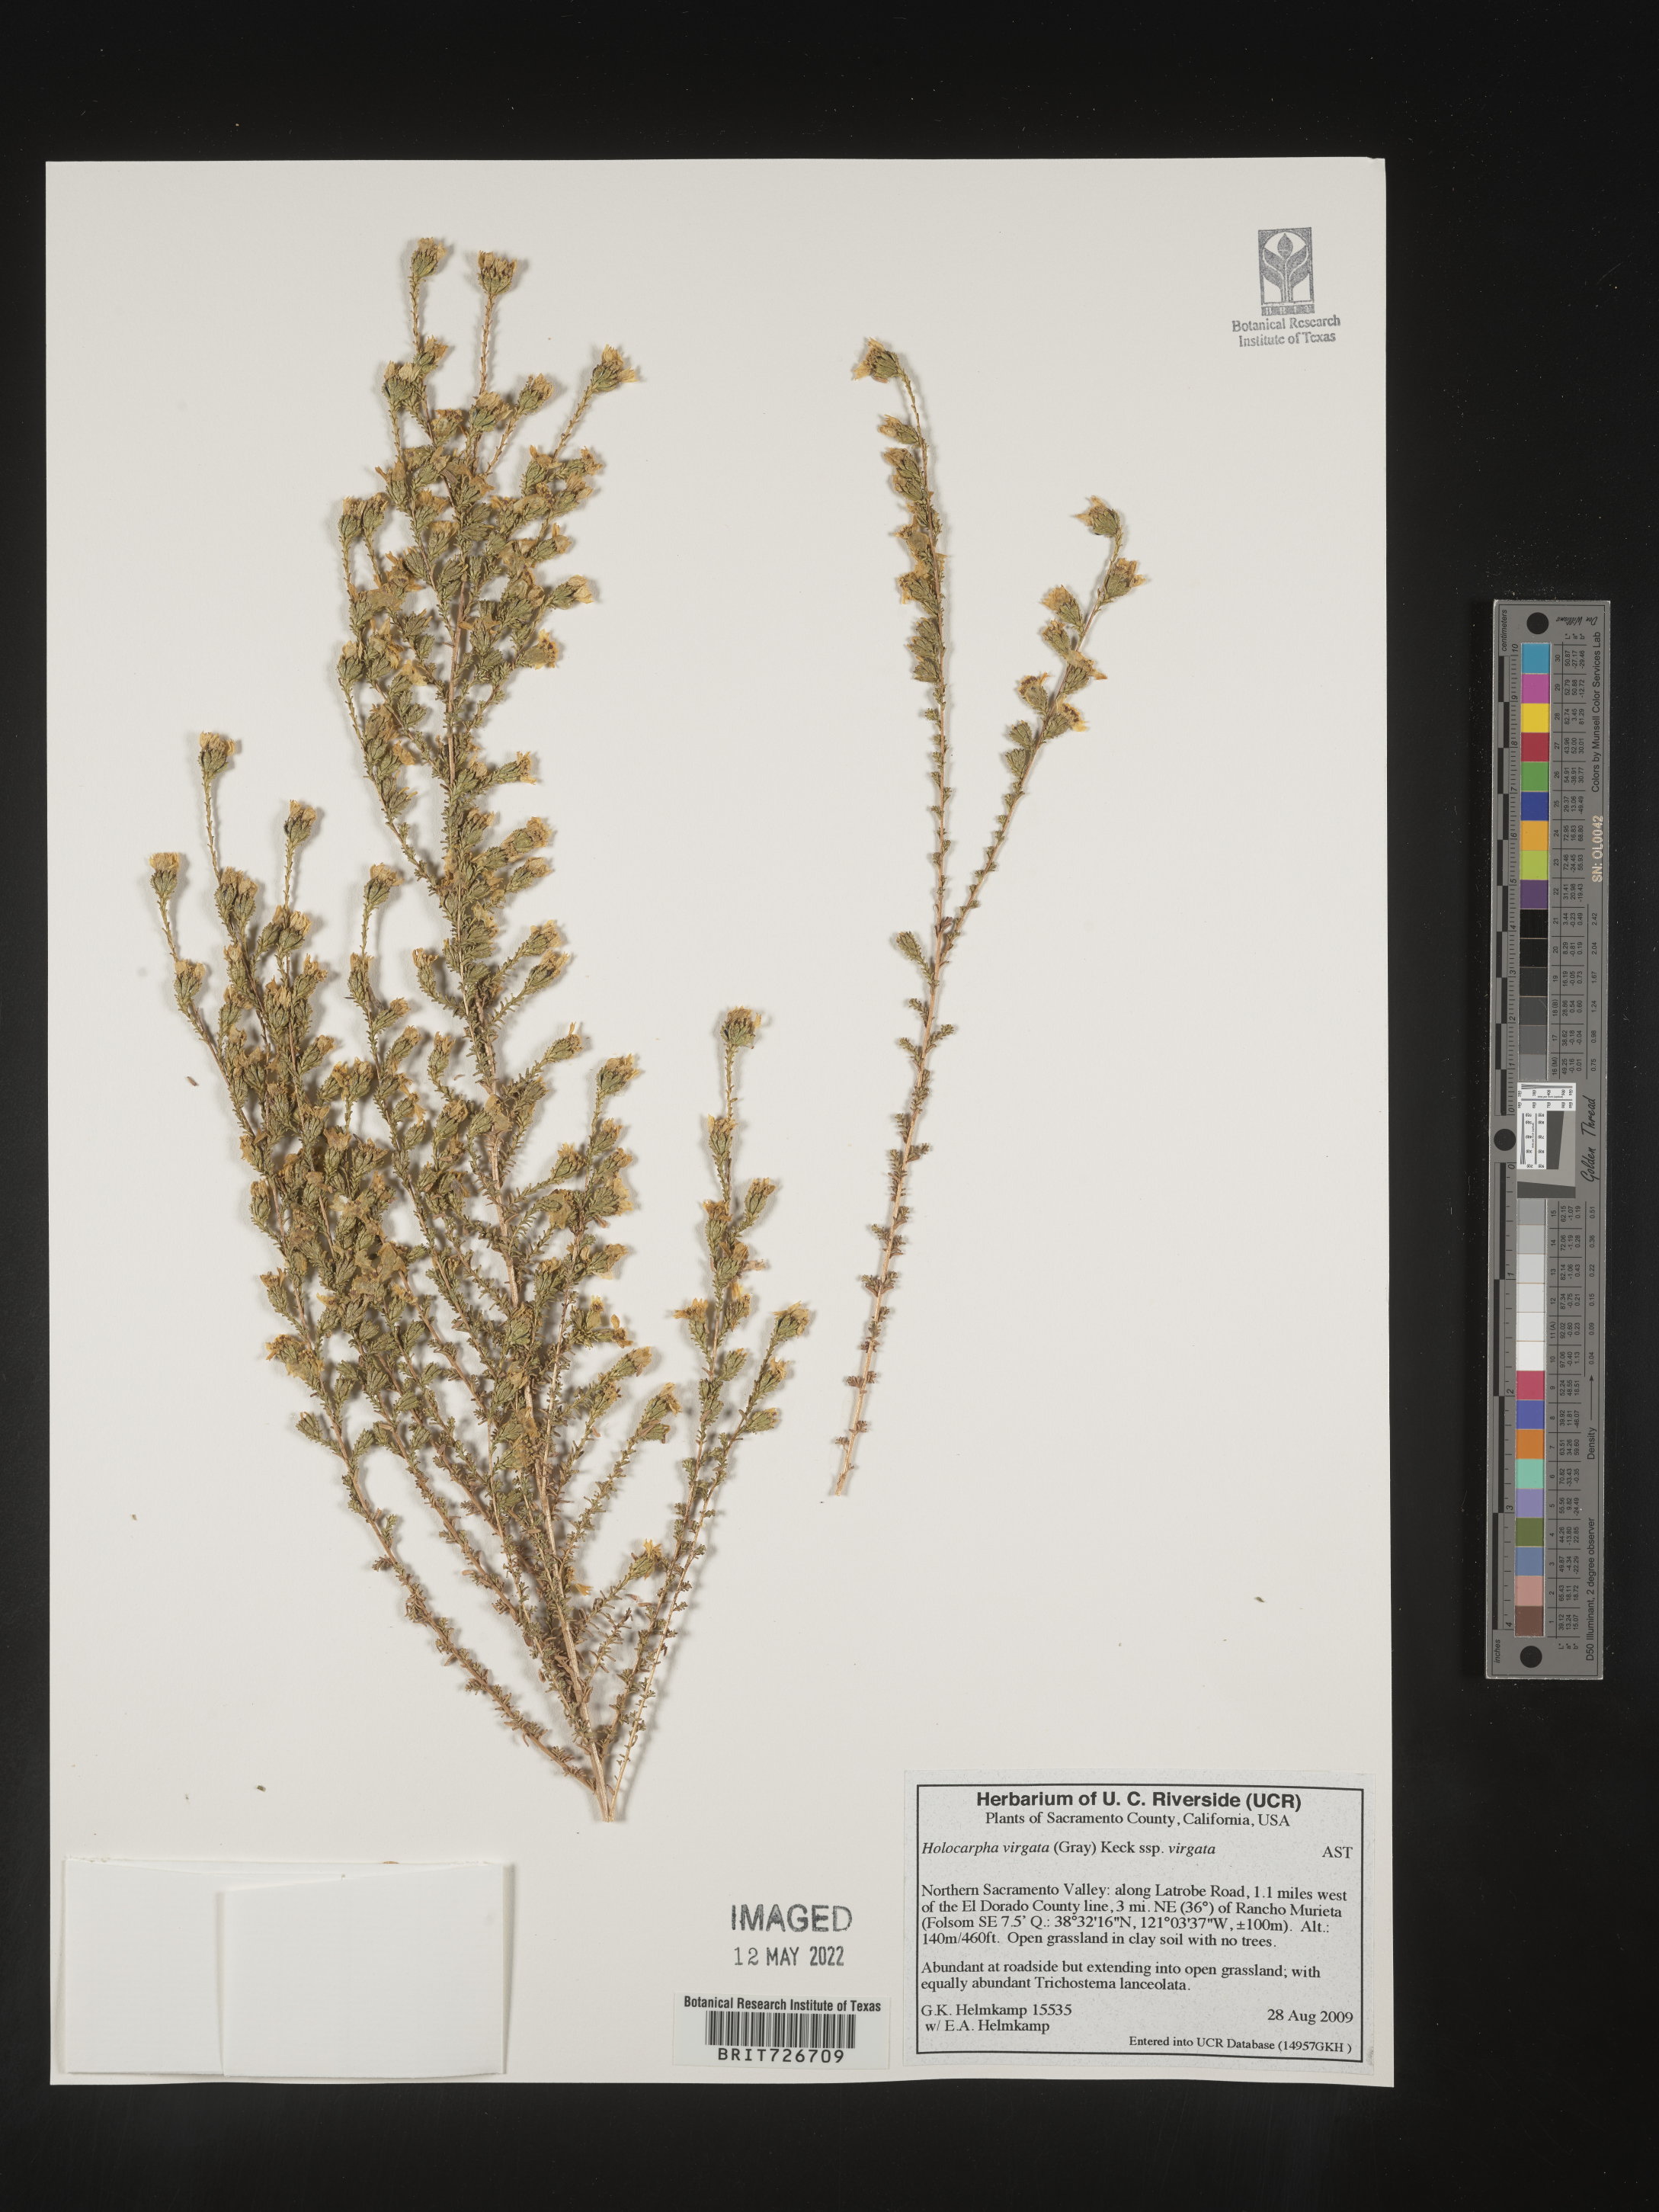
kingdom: Plantae
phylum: Tracheophyta
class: Magnoliopsida
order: Asterales
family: Asteraceae
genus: Holocarpha
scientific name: Holocarpha
